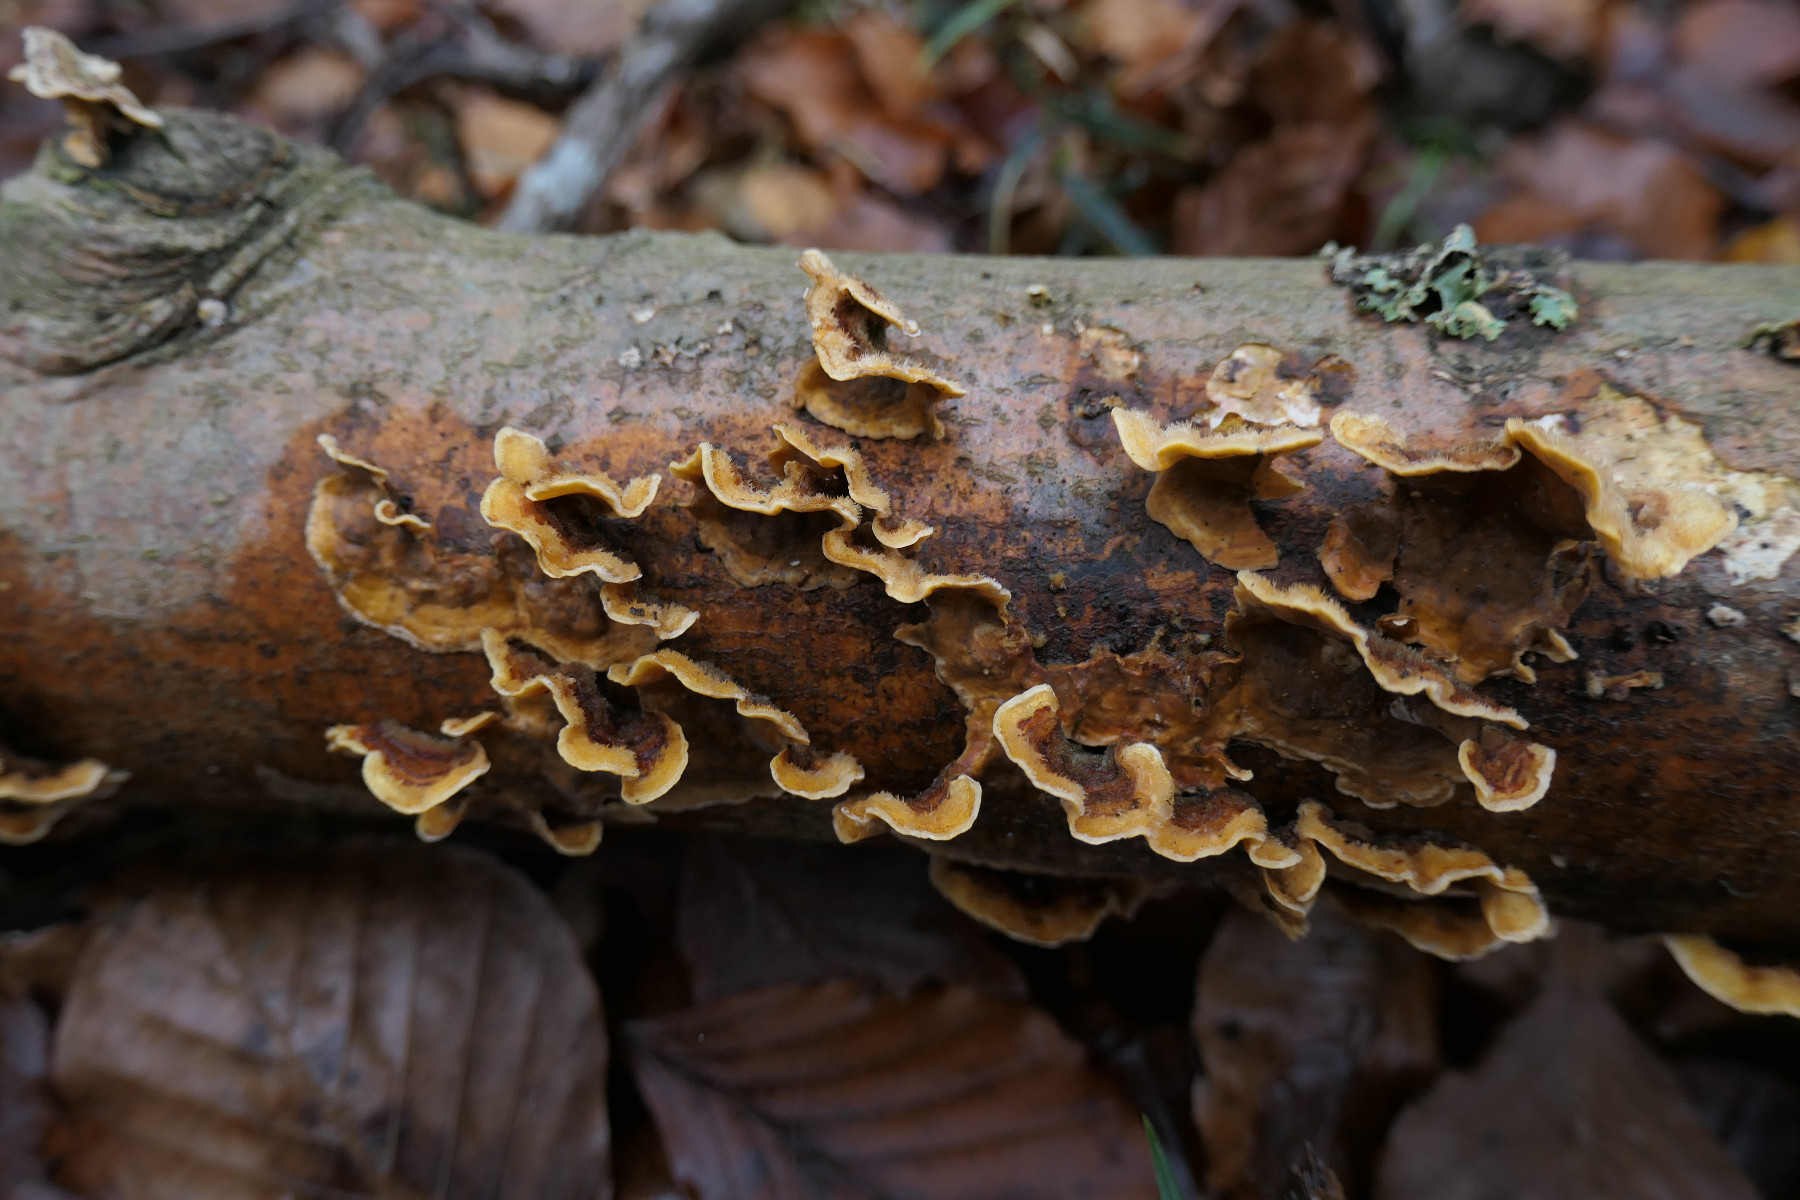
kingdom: Fungi
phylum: Basidiomycota
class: Agaricomycetes
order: Russulales
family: Stereaceae
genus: Stereum
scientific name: Stereum hirsutum
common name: håret lædersvamp
